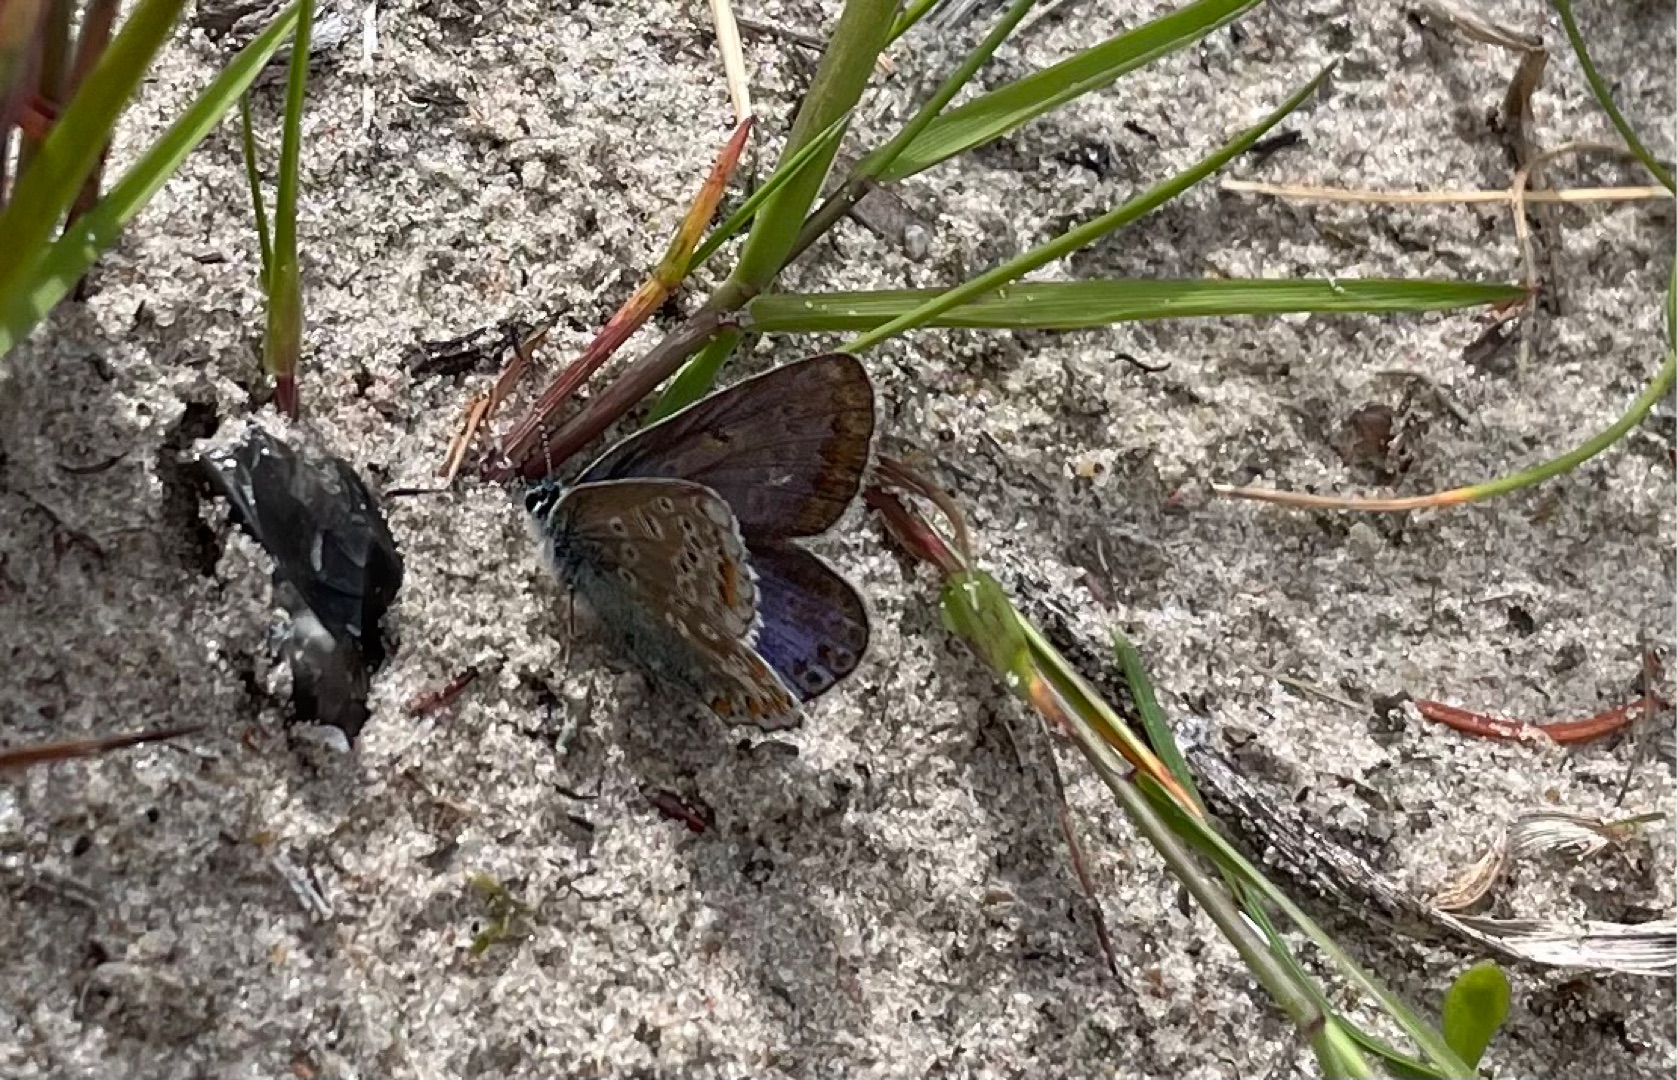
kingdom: Animalia
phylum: Arthropoda
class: Insecta
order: Lepidoptera
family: Lycaenidae
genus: Polyommatus
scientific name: Polyommatus icarus
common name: Almindelig blåfugl
